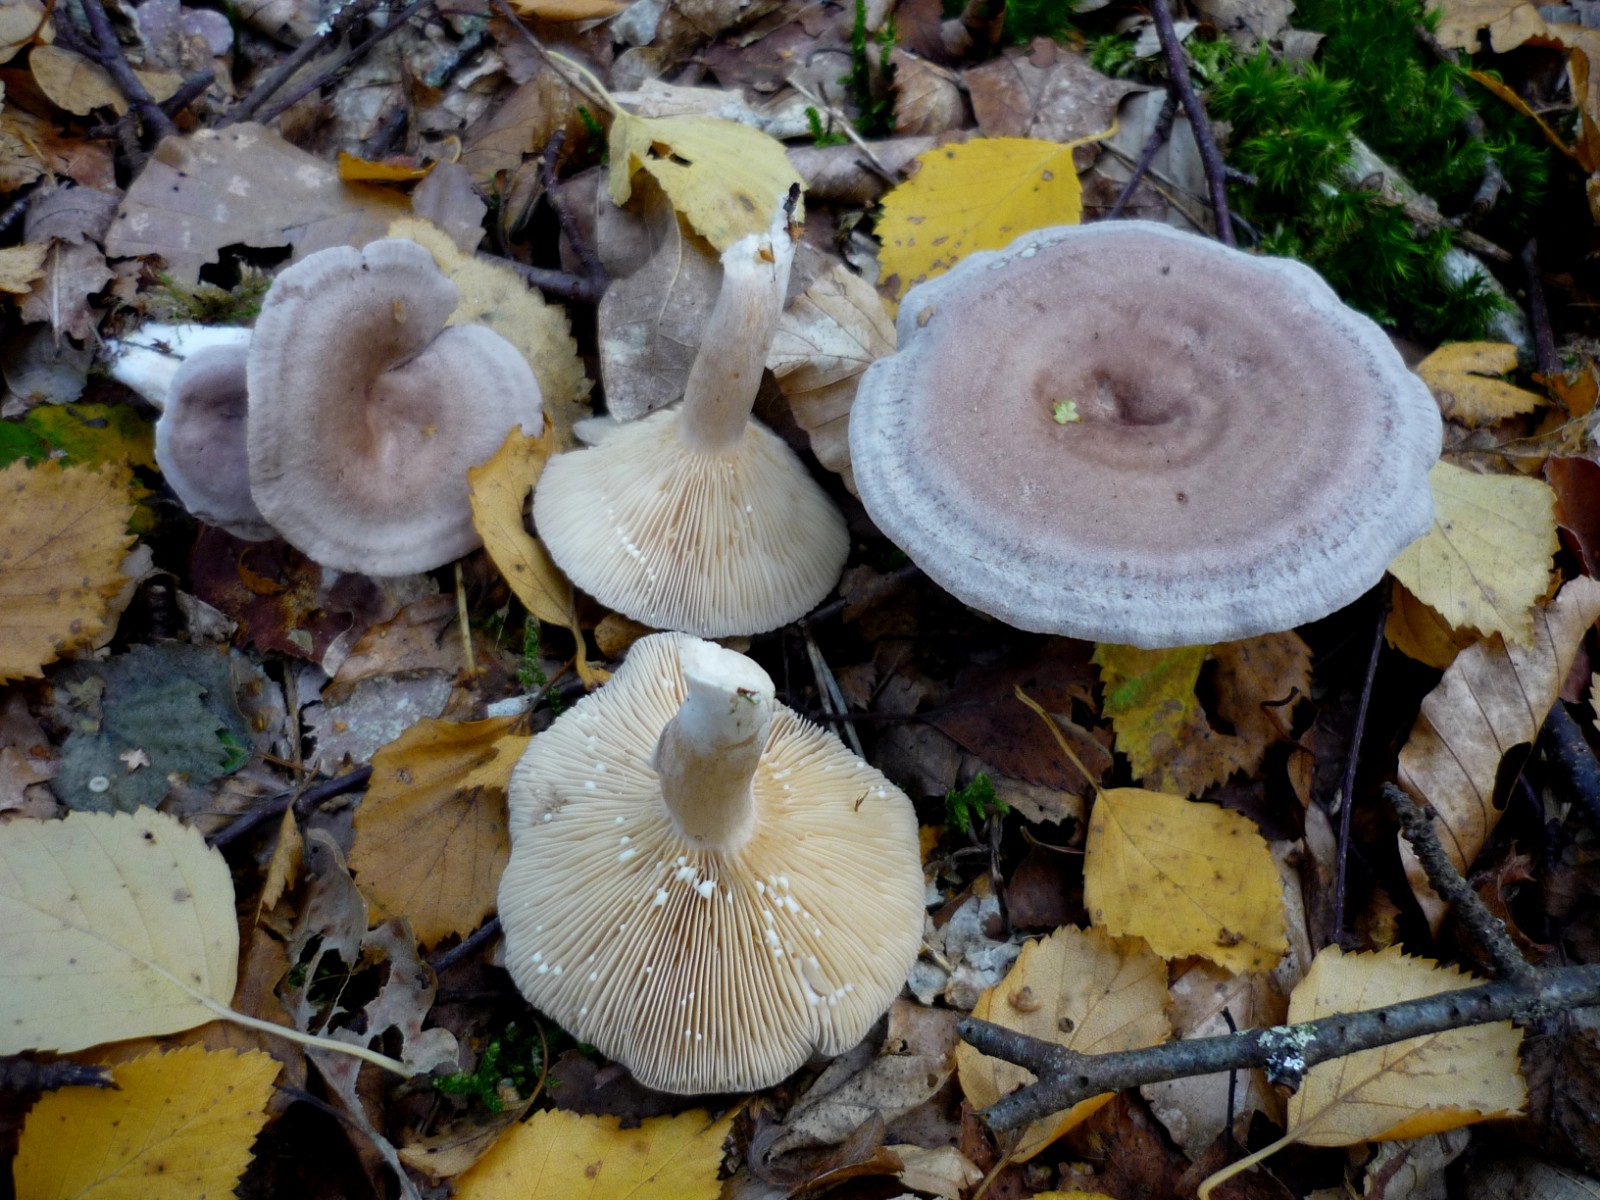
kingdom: Fungi
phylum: Basidiomycota
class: Agaricomycetes
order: Russulales
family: Russulaceae
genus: Lactarius
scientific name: Lactarius vietus
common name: violetgrå mælkehat
